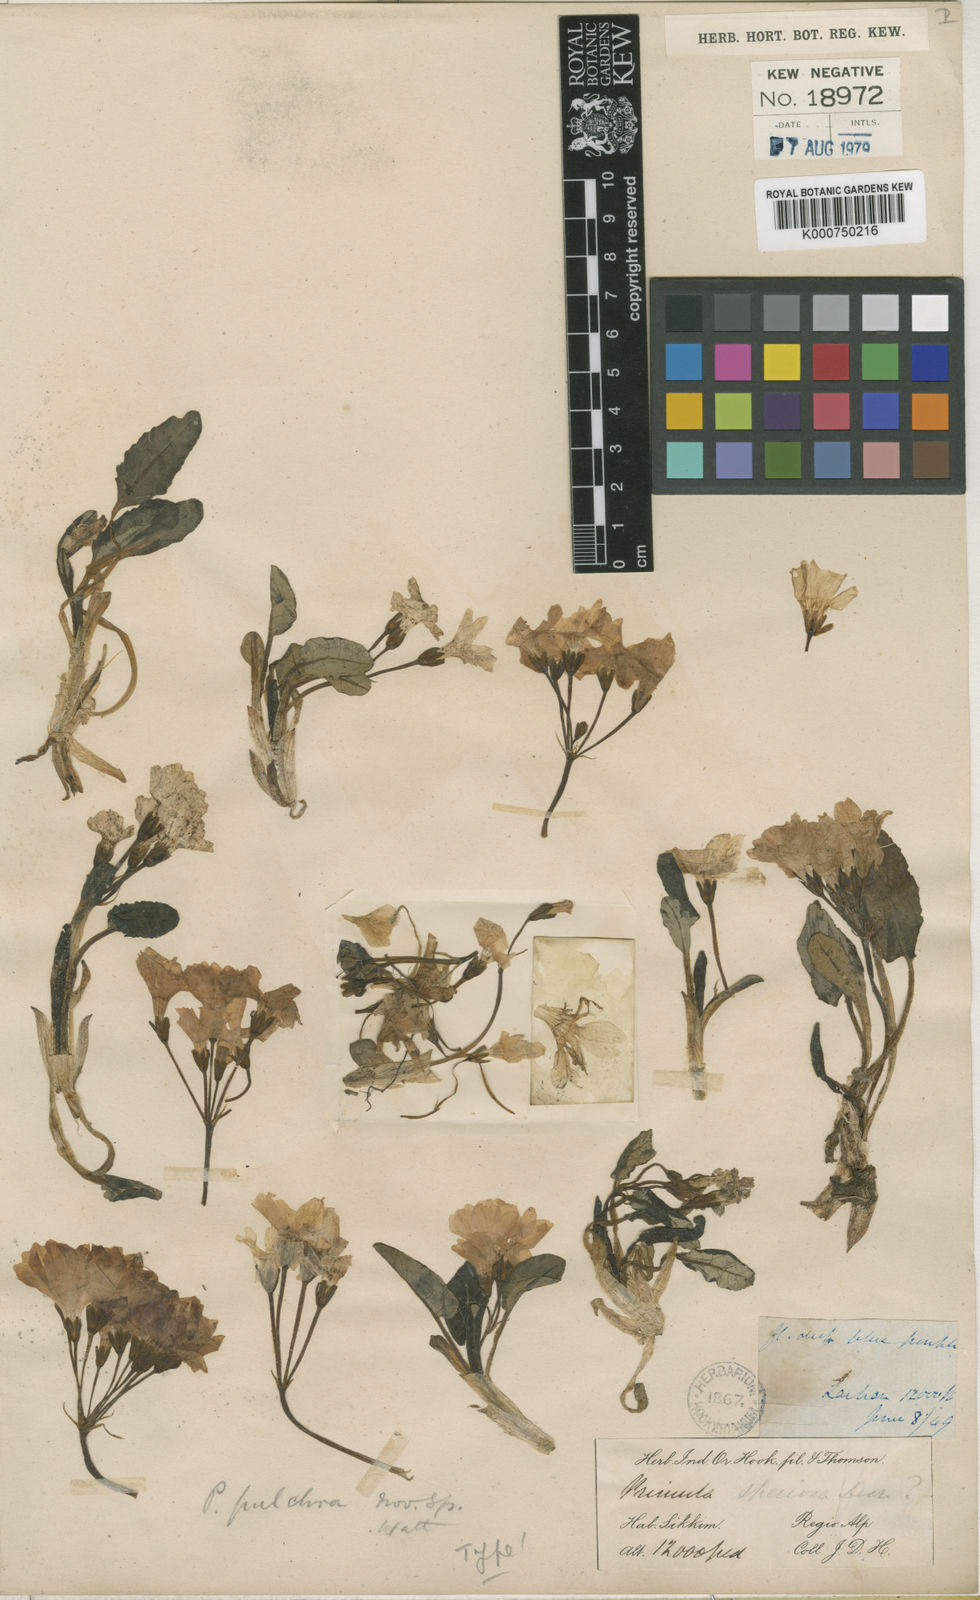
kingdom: Plantae
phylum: Tracheophyta
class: Magnoliopsida
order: Ericales
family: Primulaceae
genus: Primula
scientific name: Primula pulchra
